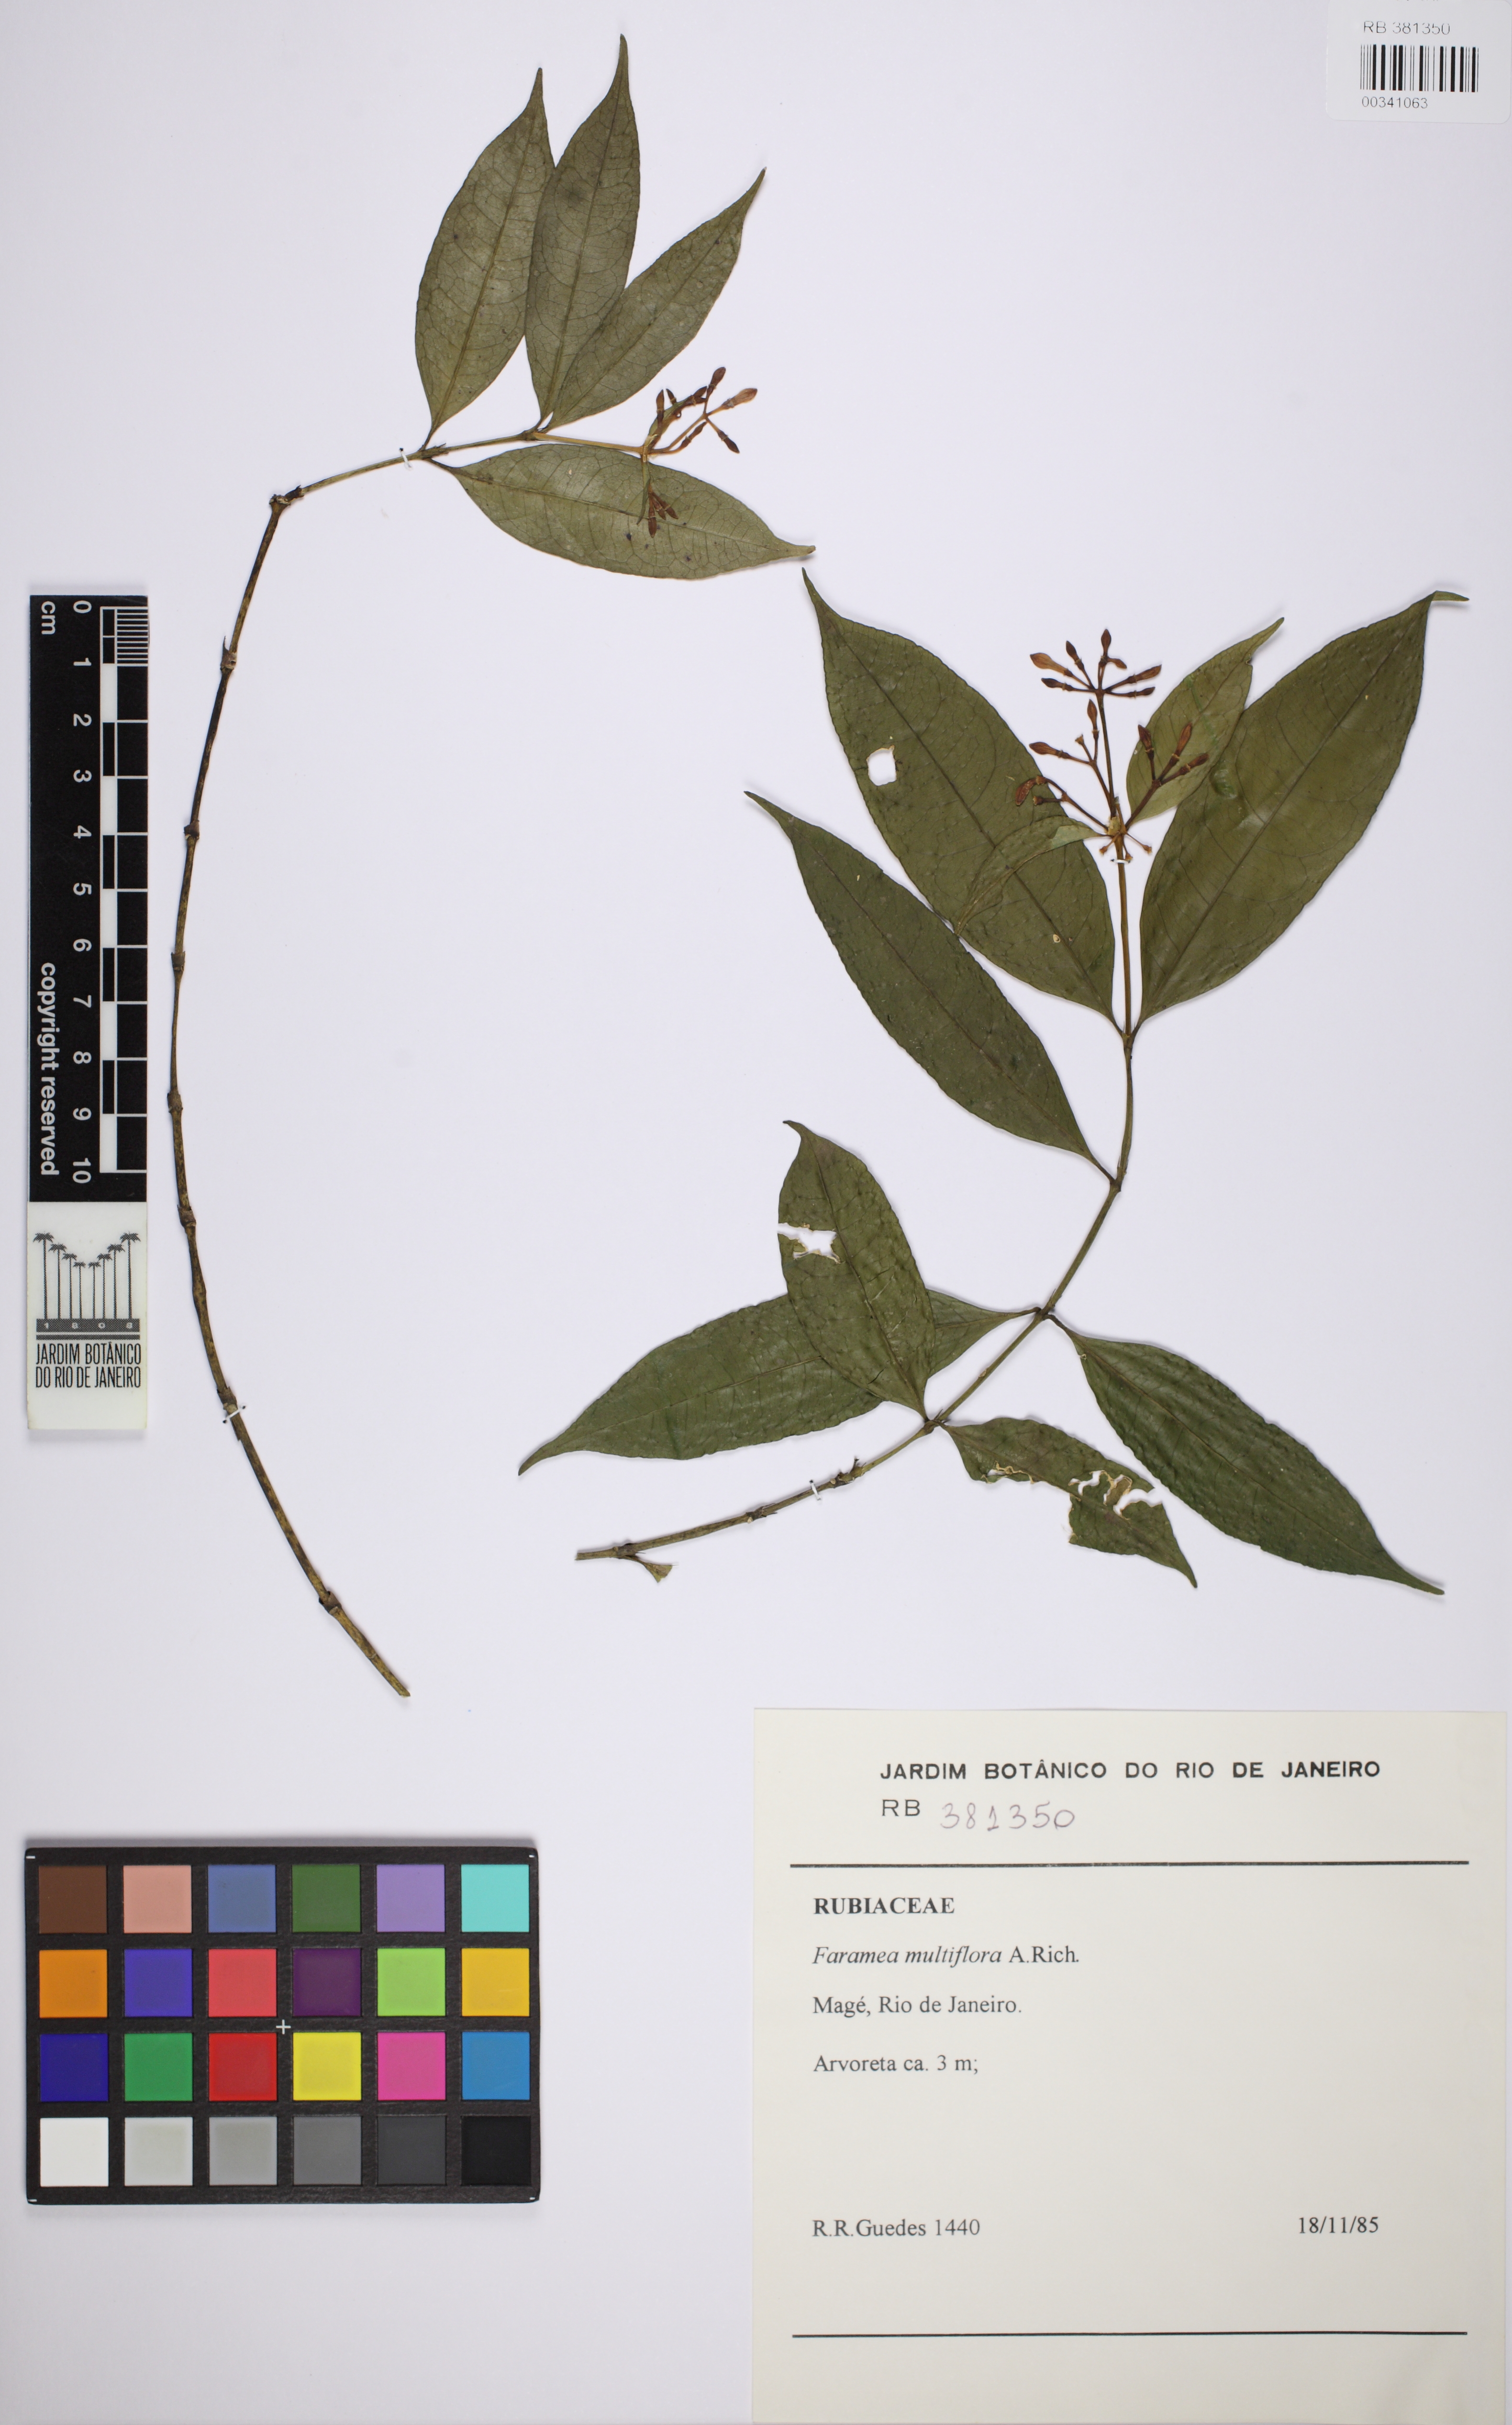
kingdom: Plantae
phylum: Tracheophyta
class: Magnoliopsida
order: Gentianales
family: Rubiaceae
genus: Faramea
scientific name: Faramea multiflora
